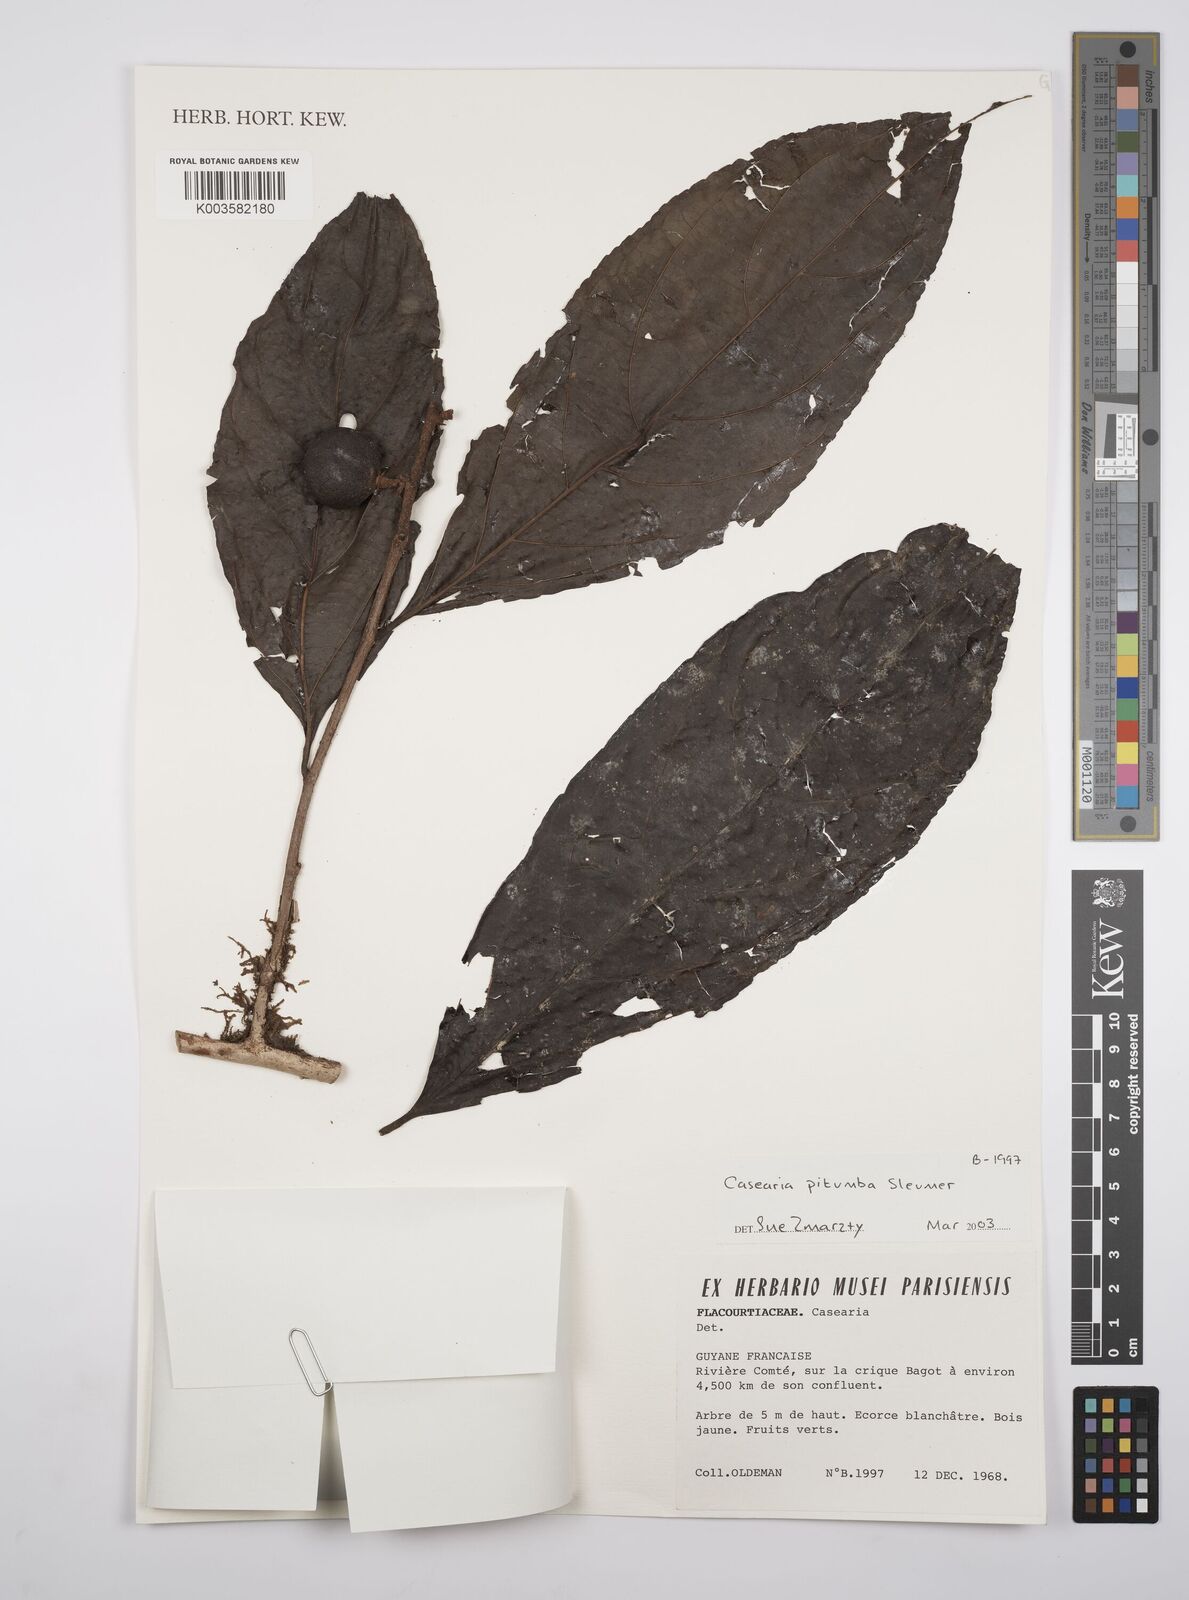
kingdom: Plantae
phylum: Tracheophyta
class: Magnoliopsida
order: Malpighiales
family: Salicaceae
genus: Casearia
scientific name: Casearia pitumba
